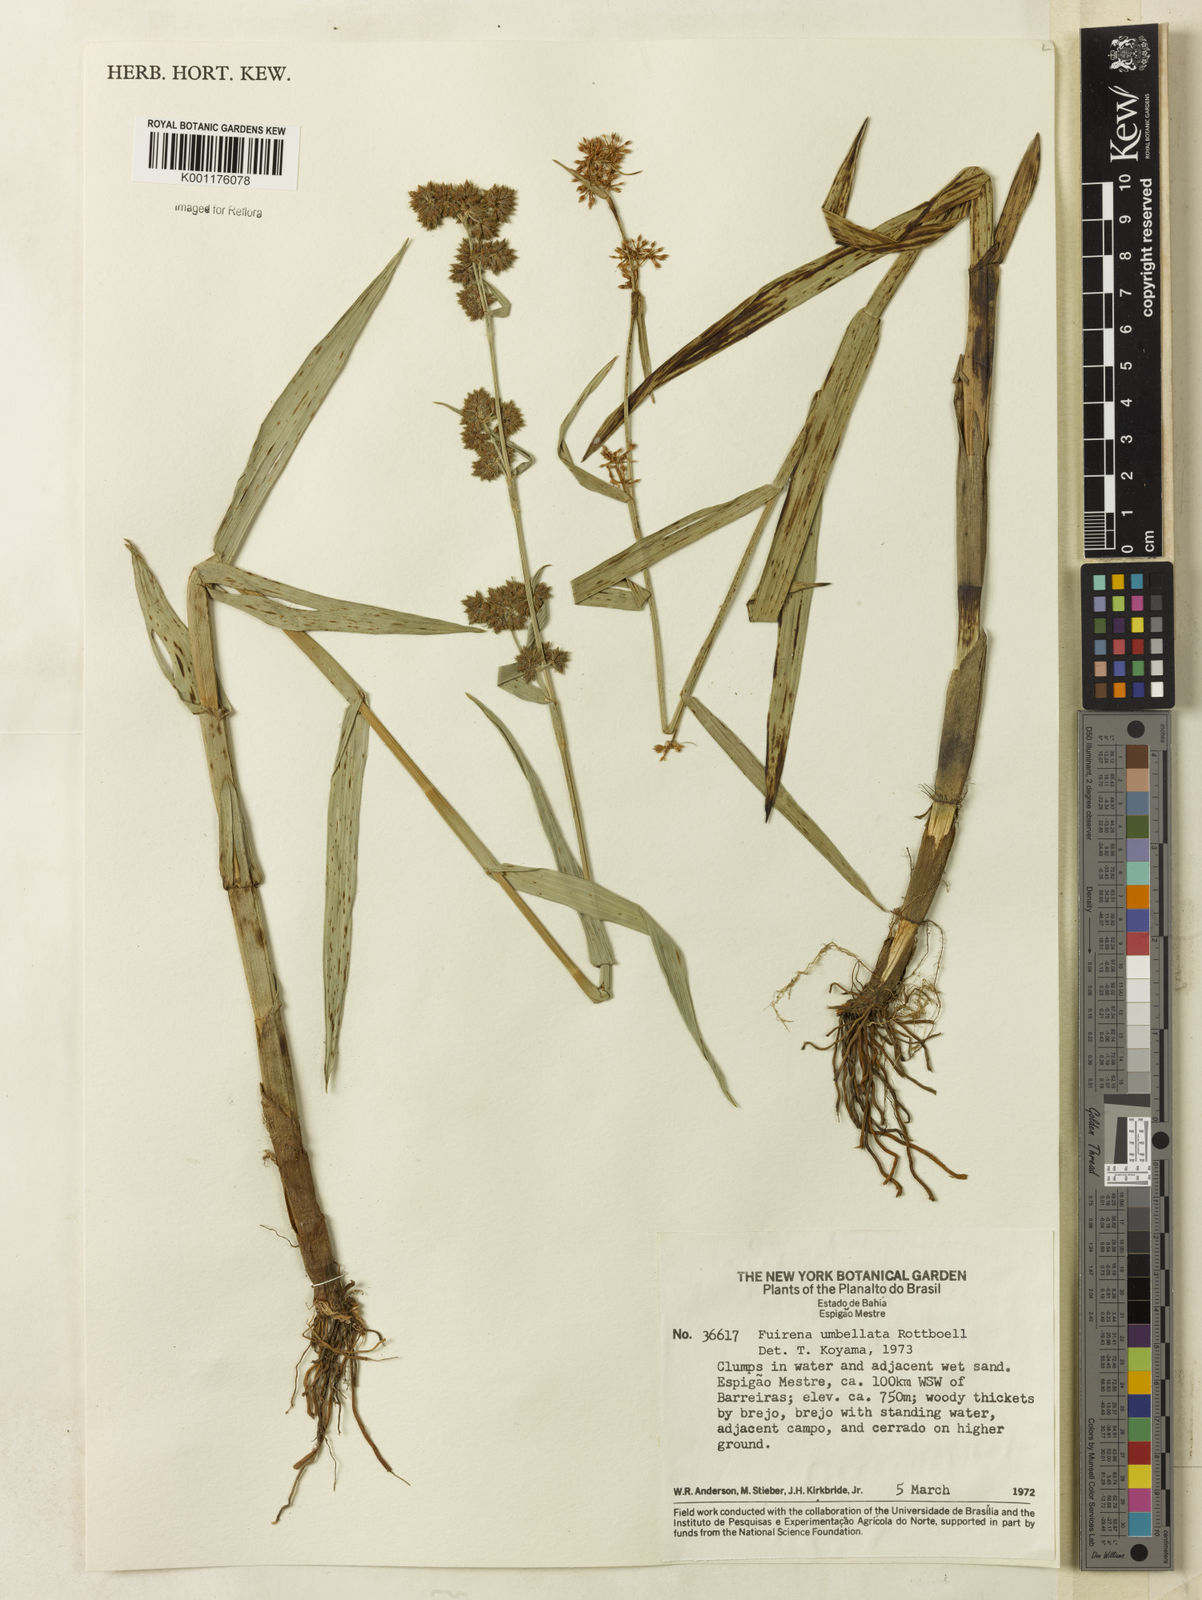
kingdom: Plantae
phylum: Tracheophyta
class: Liliopsida
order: Poales
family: Cyperaceae
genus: Fuirena
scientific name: Fuirena umbellata
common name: Yefen
